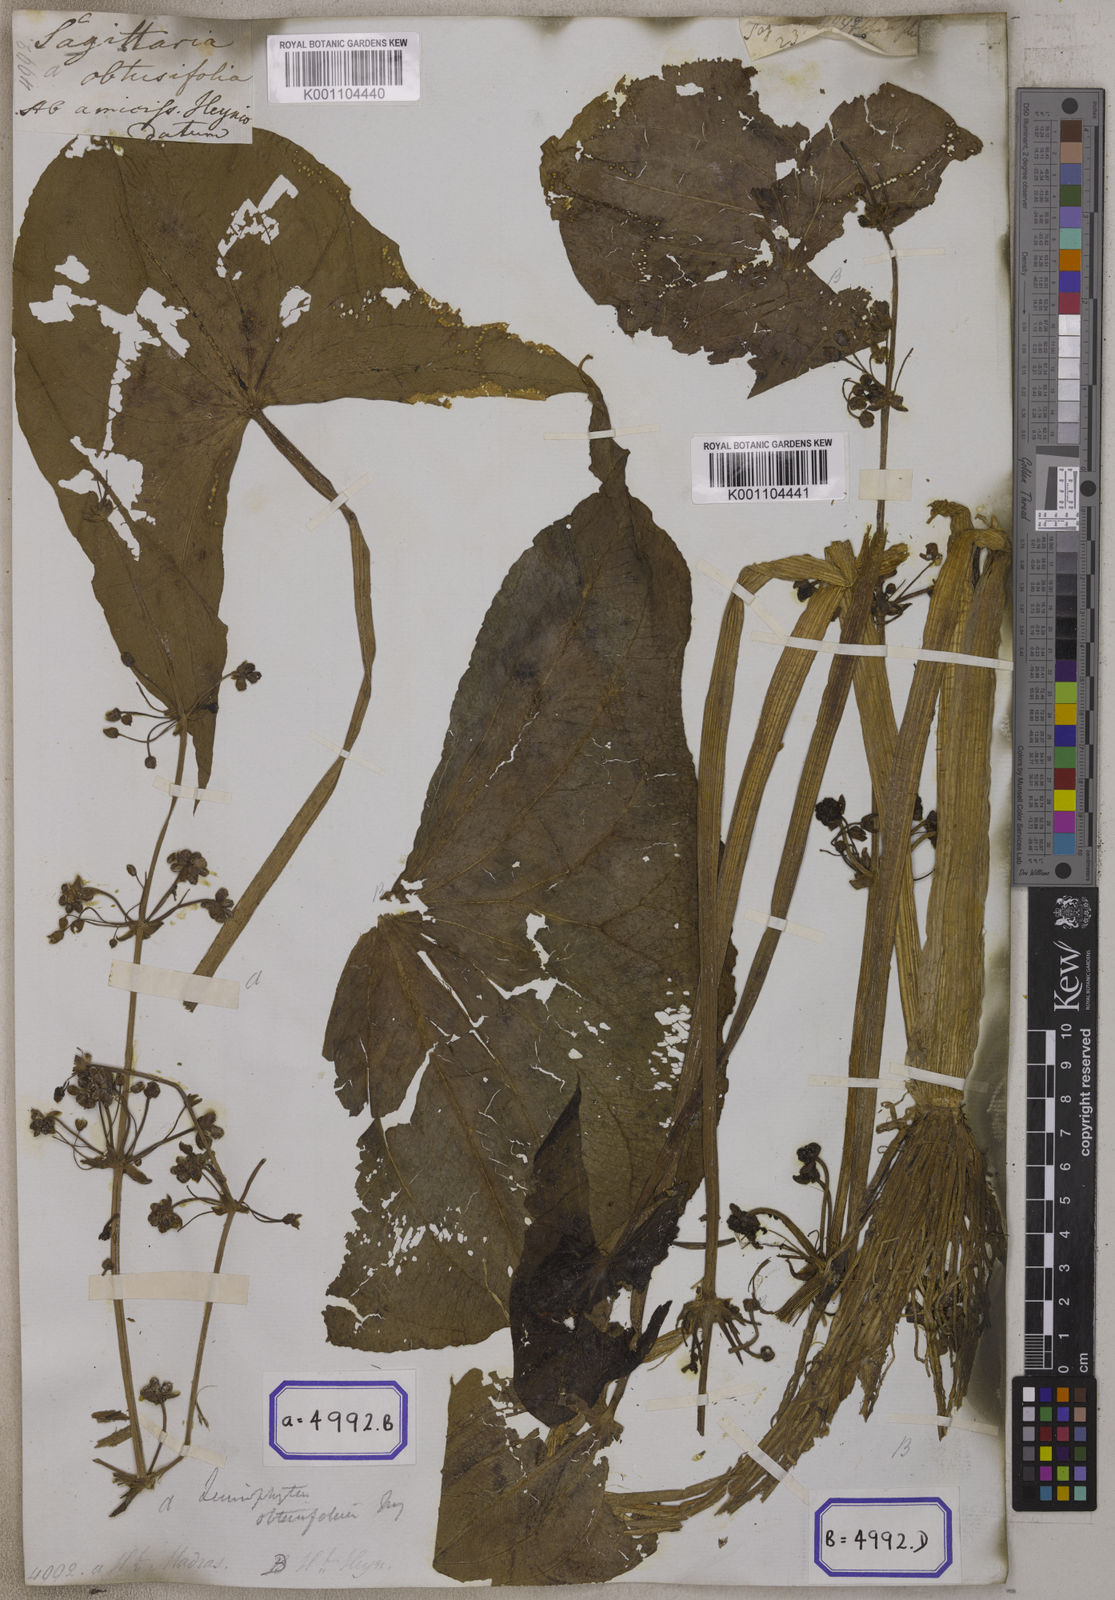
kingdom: Plantae
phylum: Tracheophyta
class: Liliopsida
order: Alismatales
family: Alismataceae
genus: Limnophyton
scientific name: Limnophyton obtusifolium
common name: Arrow head
